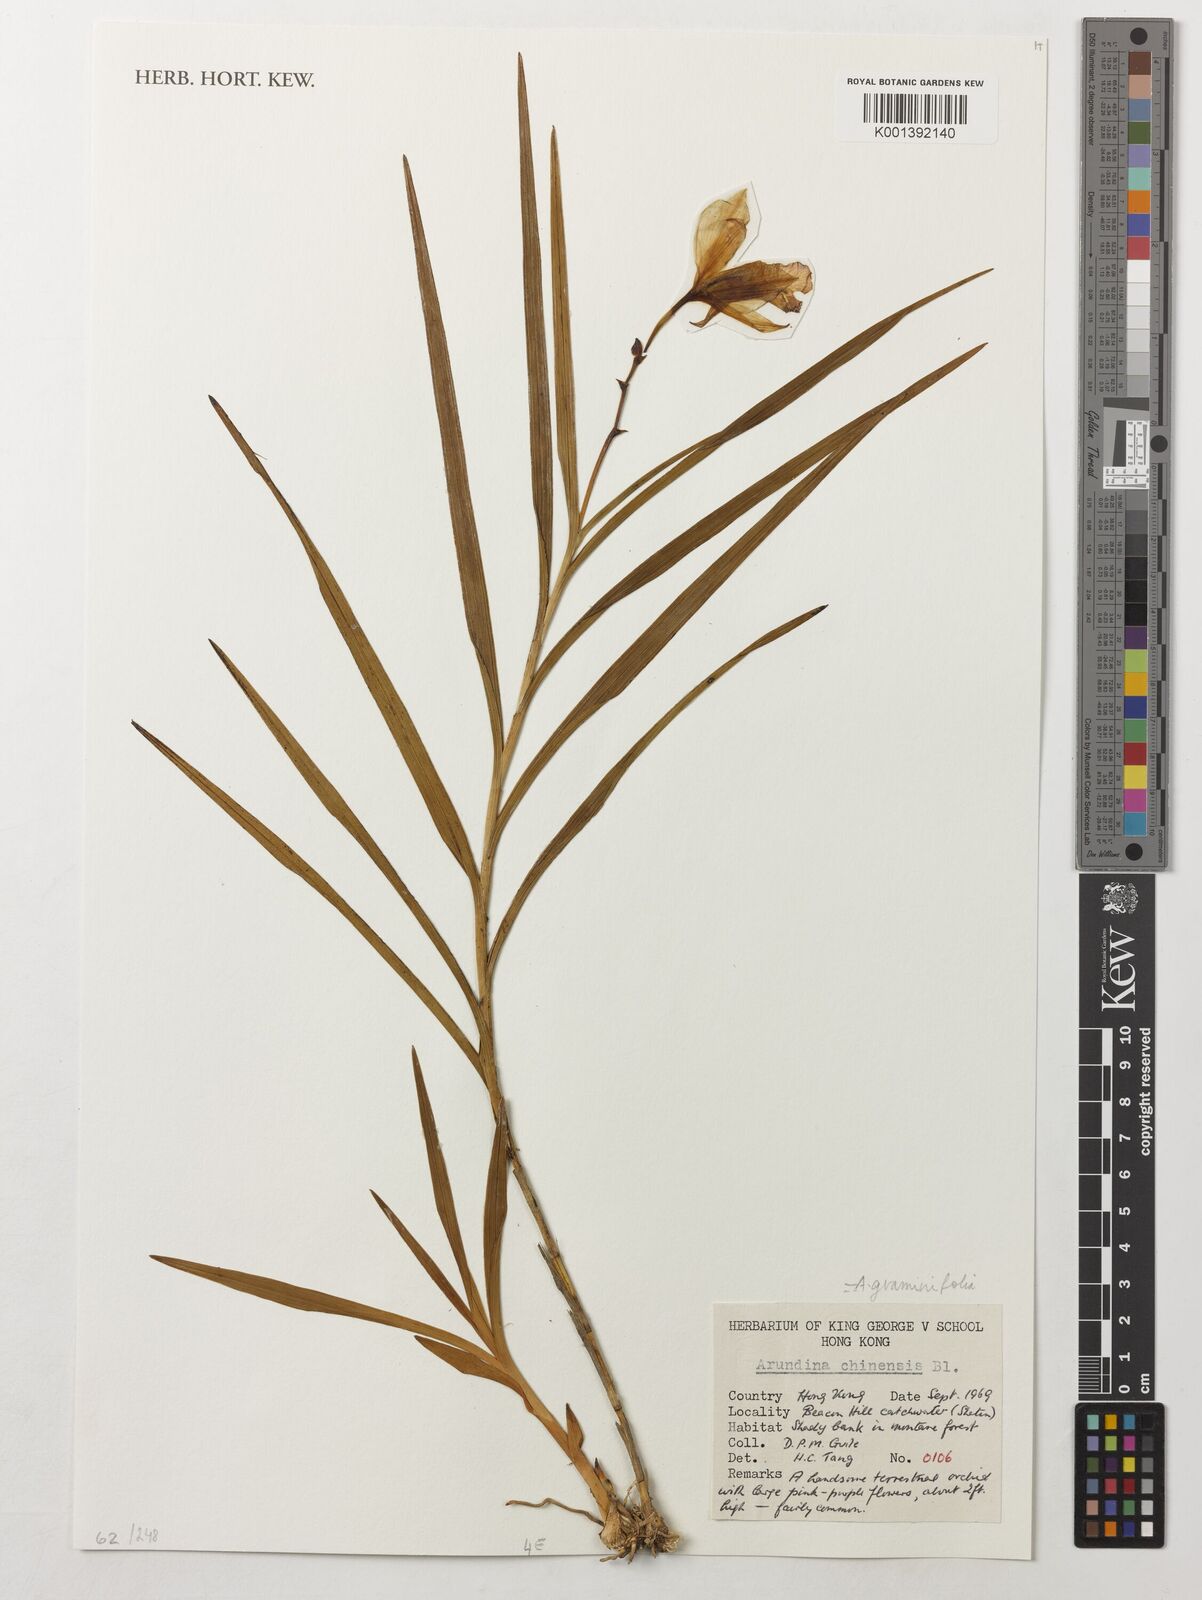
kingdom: Plantae
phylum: Tracheophyta
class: Liliopsida
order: Asparagales
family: Orchidaceae
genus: Arundina
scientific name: Arundina graminifolia
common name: Bamboo orchid
